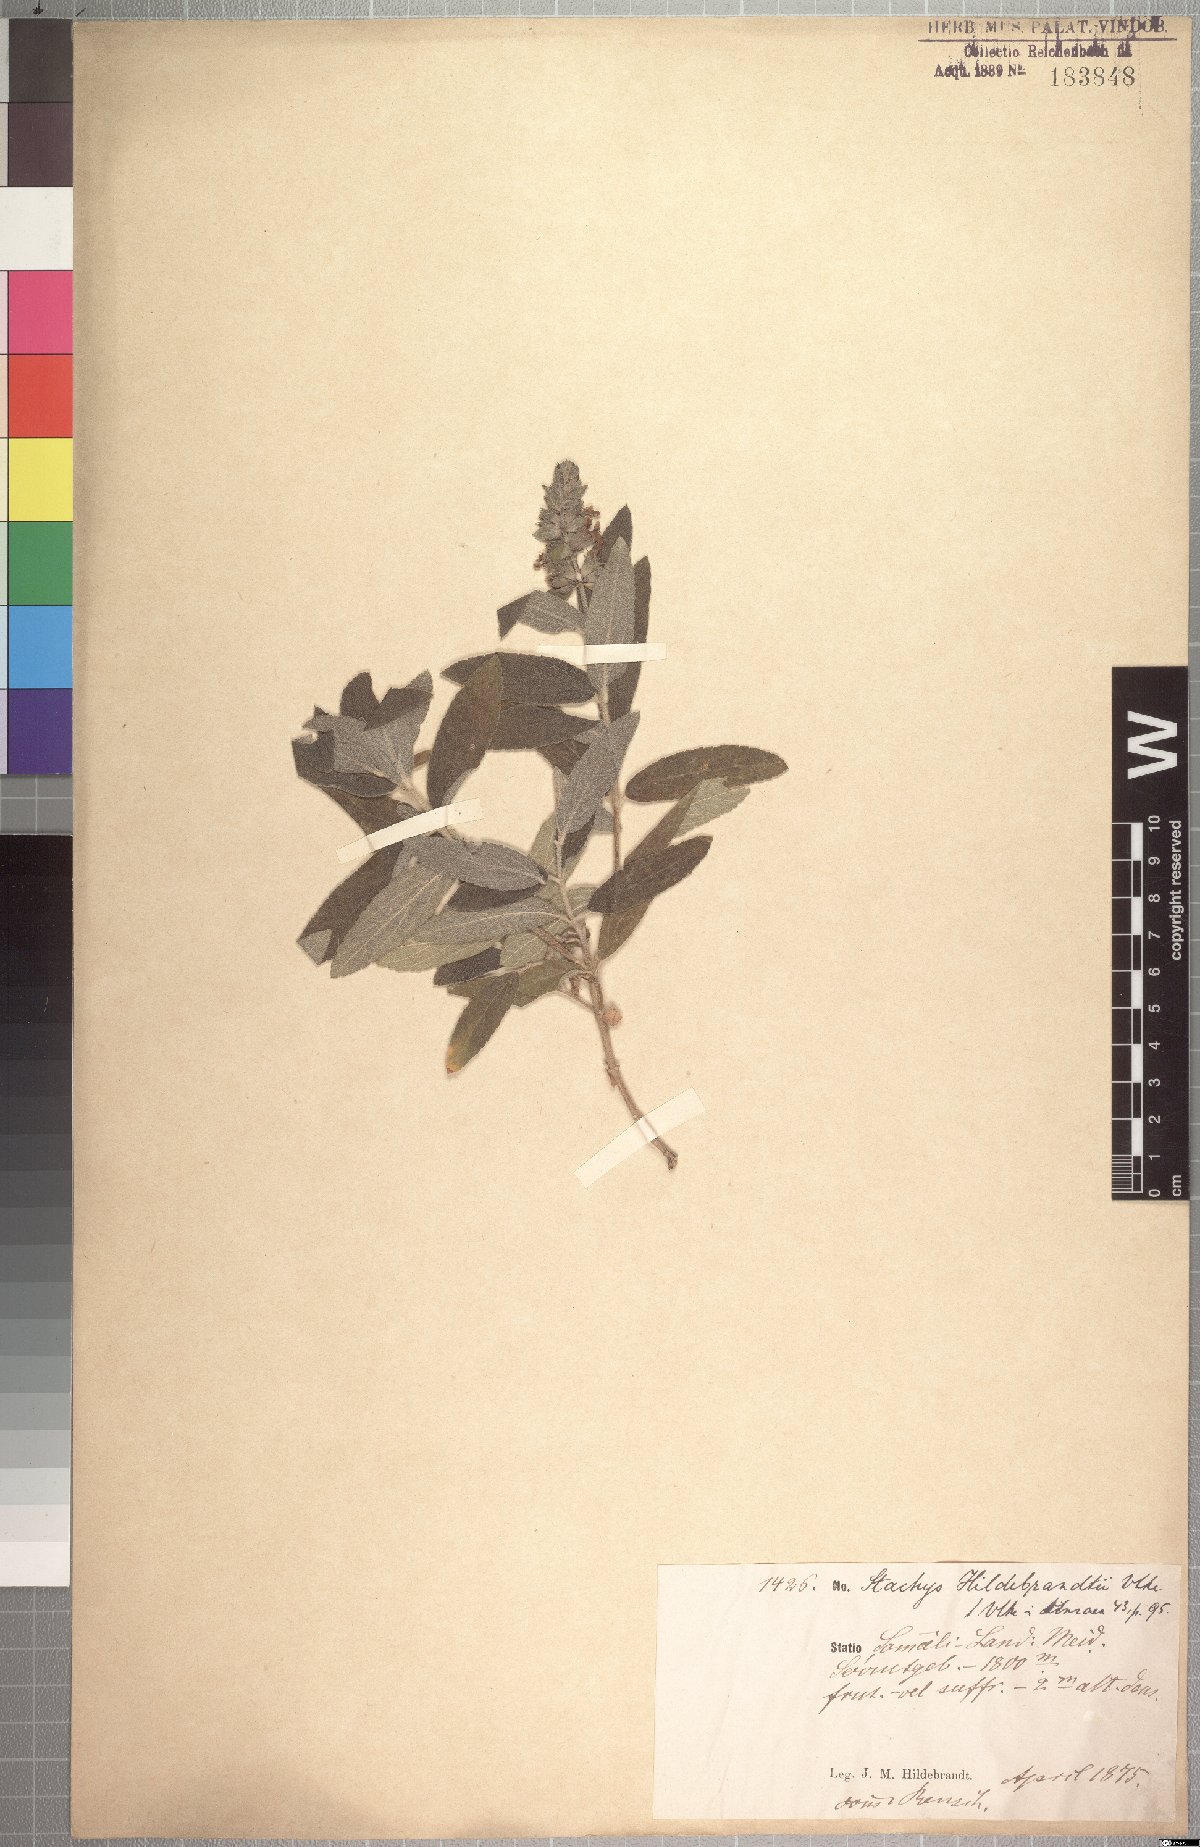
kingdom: Plantae
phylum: Tracheophyta
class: Magnoliopsida
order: Lamiales
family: Lamiaceae
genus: Stachys
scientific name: Stachys hildebrandtii
